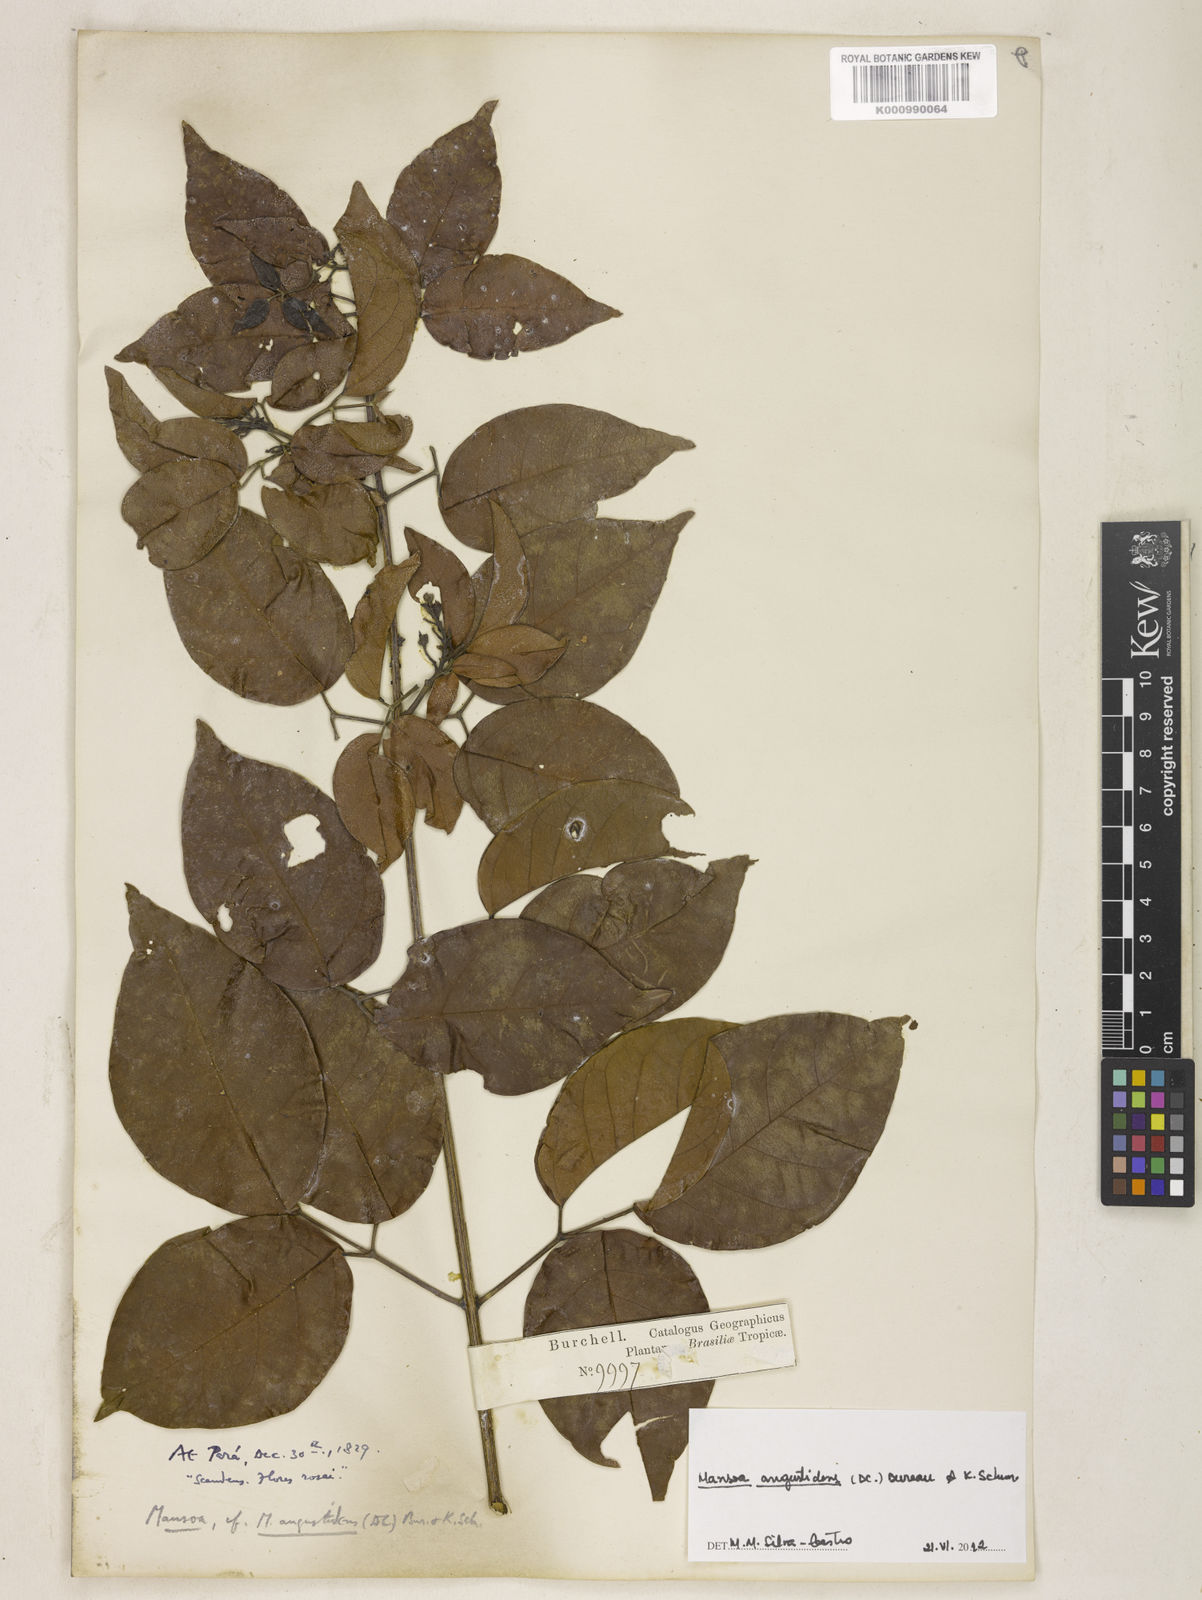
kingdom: Plantae
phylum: Tracheophyta
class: Magnoliopsida
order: Lamiales
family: Bignoniaceae
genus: Mansoa
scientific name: Mansoa angustidens
